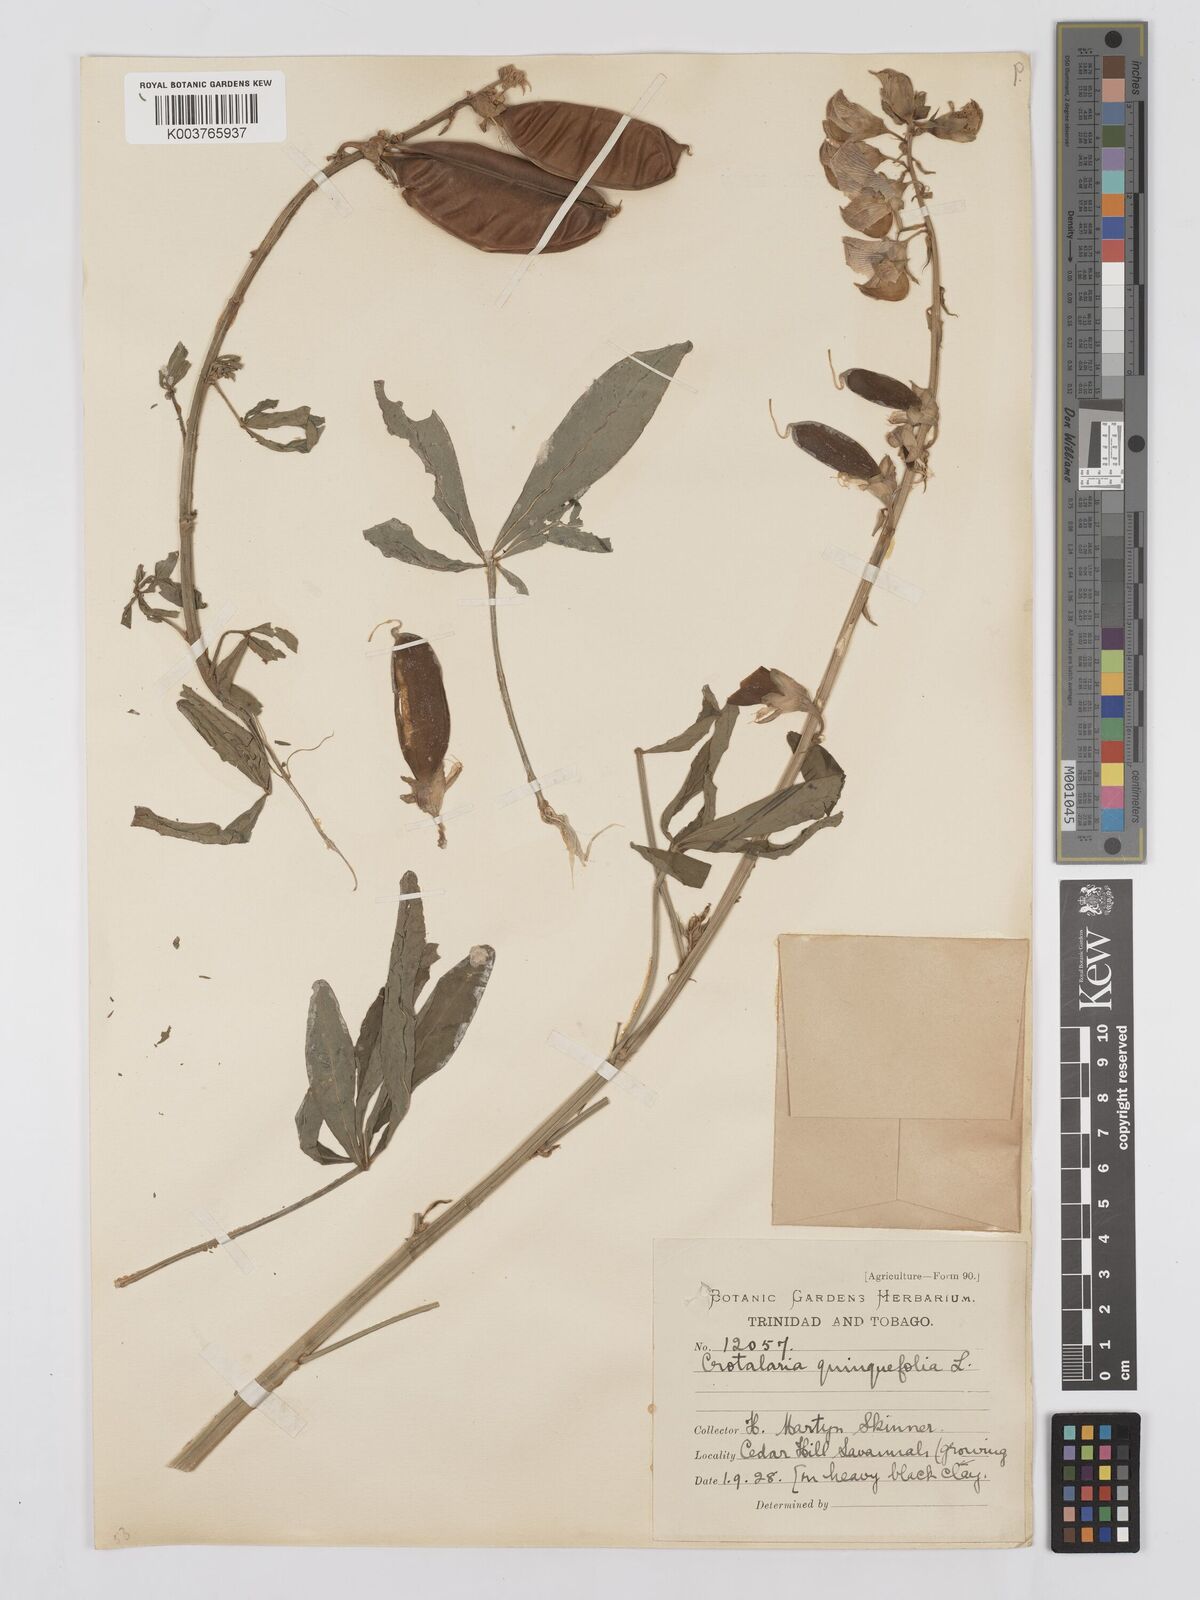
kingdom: Plantae
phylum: Tracheophyta
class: Magnoliopsida
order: Fabales
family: Fabaceae
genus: Crotalaria
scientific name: Crotalaria quinquefolia
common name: Five-leaf crotalaria
